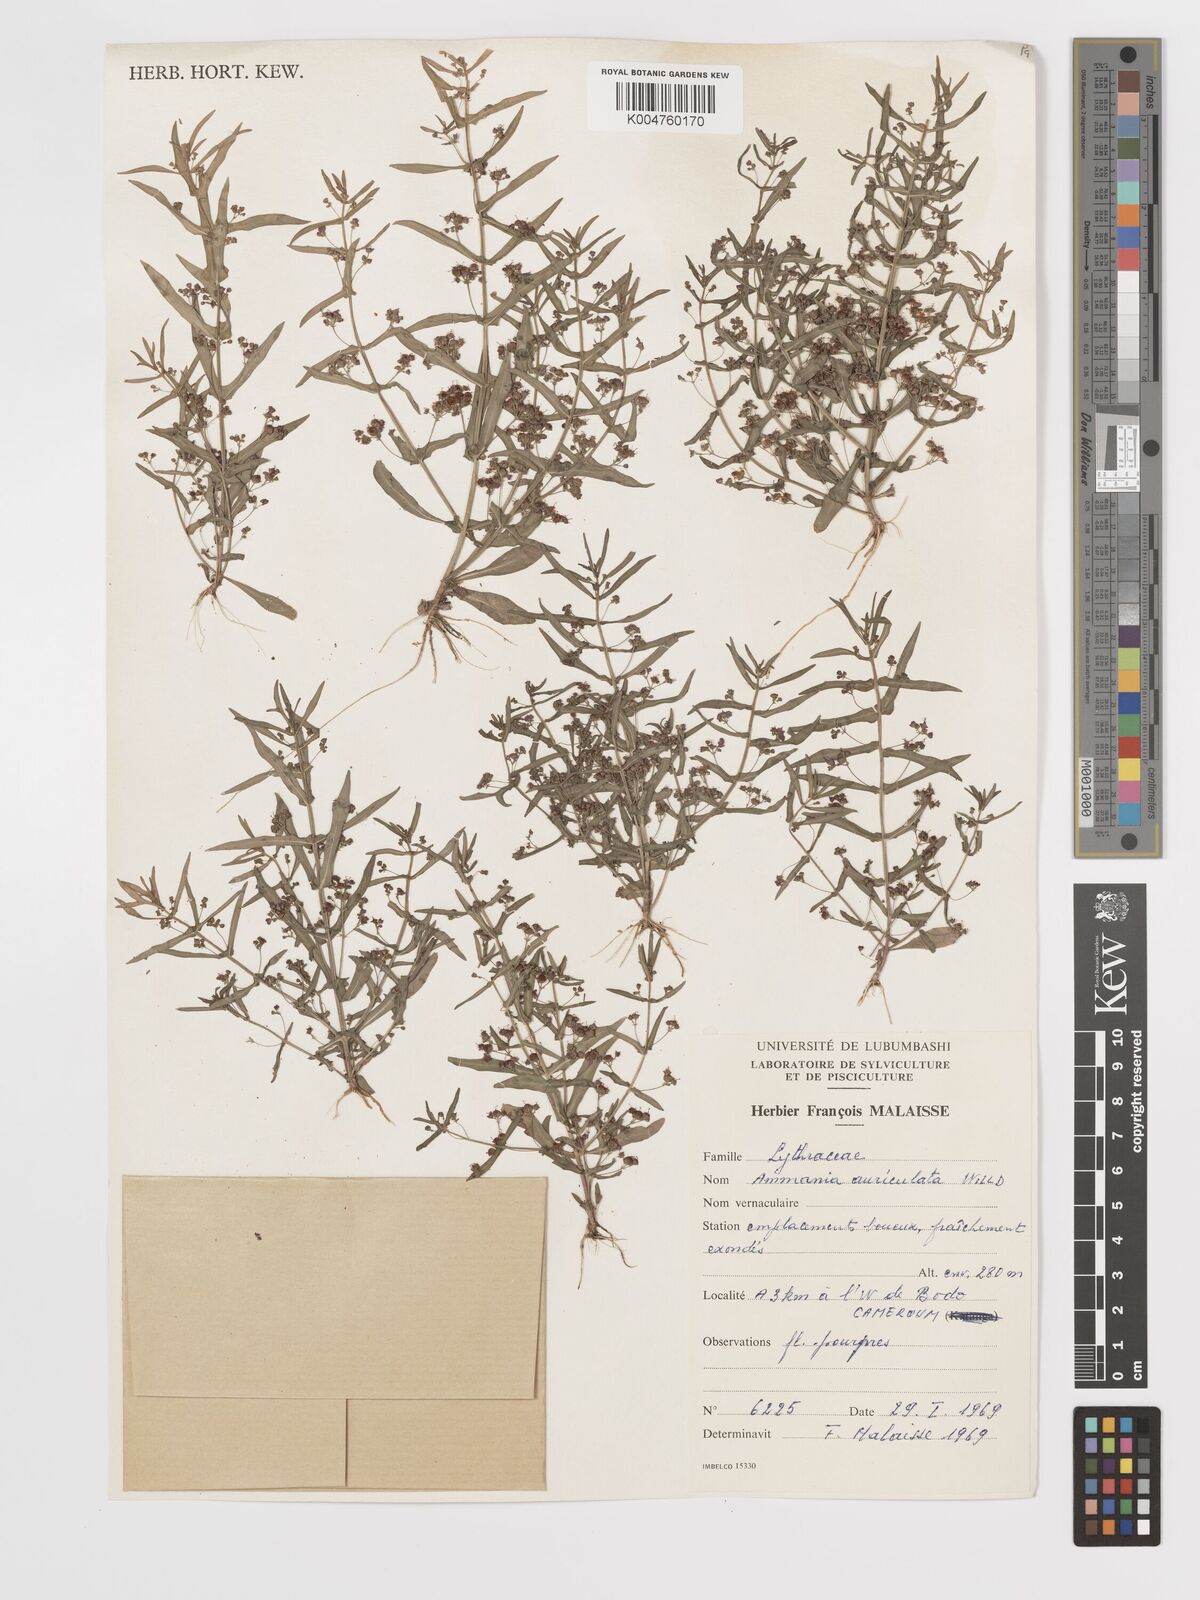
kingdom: Plantae
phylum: Tracheophyta
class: Magnoliopsida
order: Myrtales
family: Lythraceae
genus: Ammannia
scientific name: Ammannia auriculata
